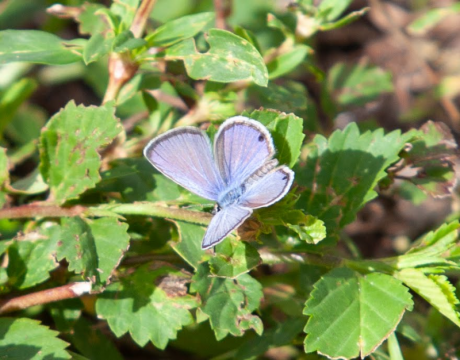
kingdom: Animalia
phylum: Arthropoda
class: Insecta
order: Lepidoptera
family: Lycaenidae
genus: Hemiargus
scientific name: Hemiargus ceraunus
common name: Ceraunus Blue
